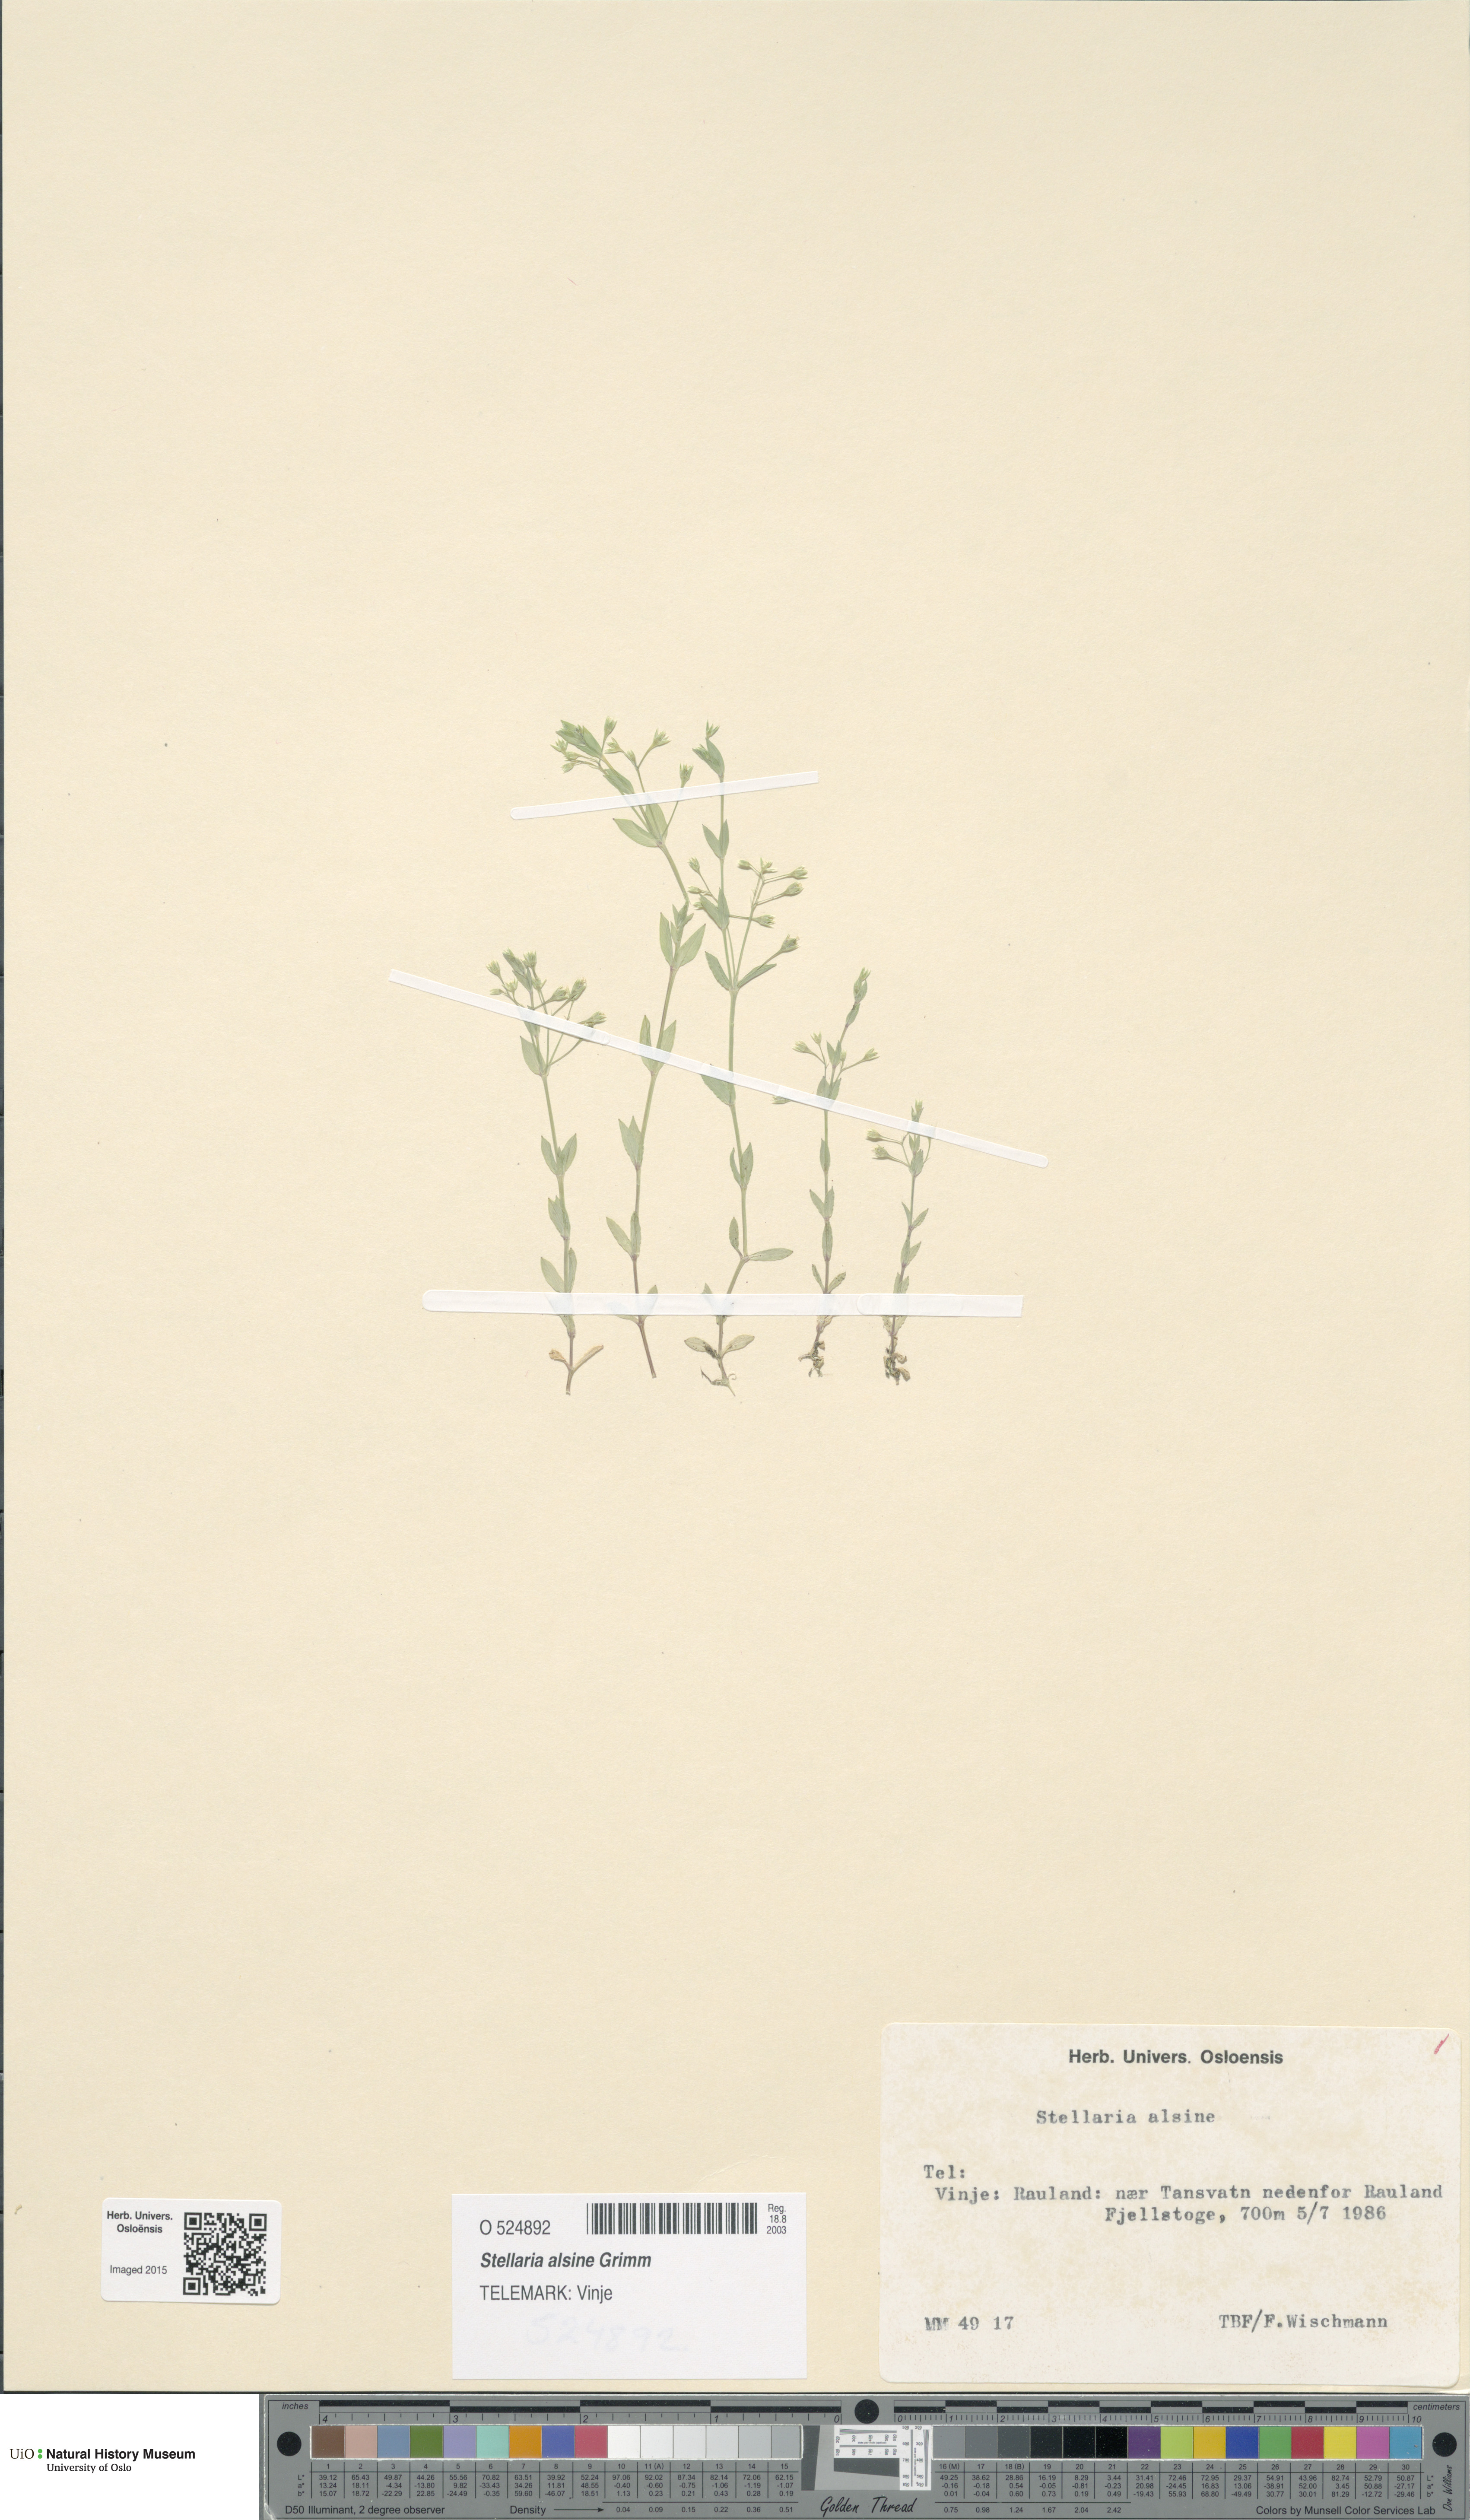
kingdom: Plantae
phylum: Tracheophyta
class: Magnoliopsida
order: Caryophyllales
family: Caryophyllaceae
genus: Stellaria
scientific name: Stellaria alsine
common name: Bog stitchwort
